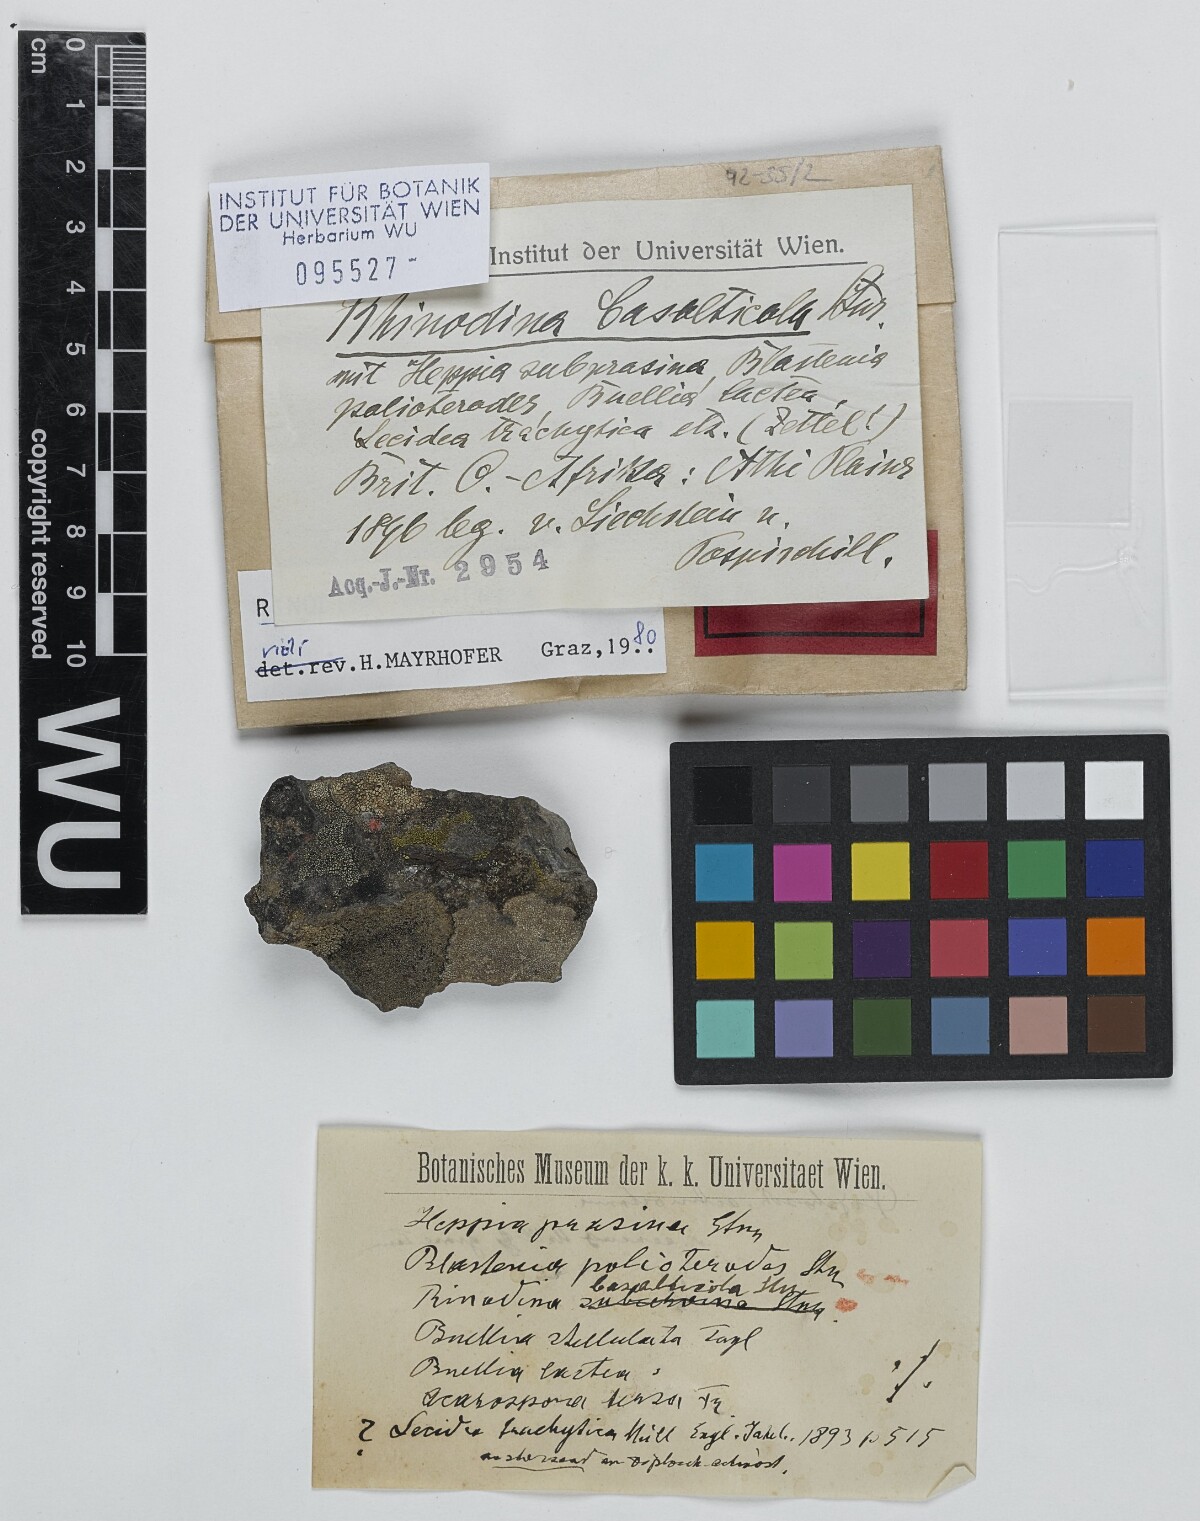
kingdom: Fungi
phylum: Ascomycota
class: Lecanoromycetes
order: Caliciales
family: Physciaceae
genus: Rinodina
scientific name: Rinodina
